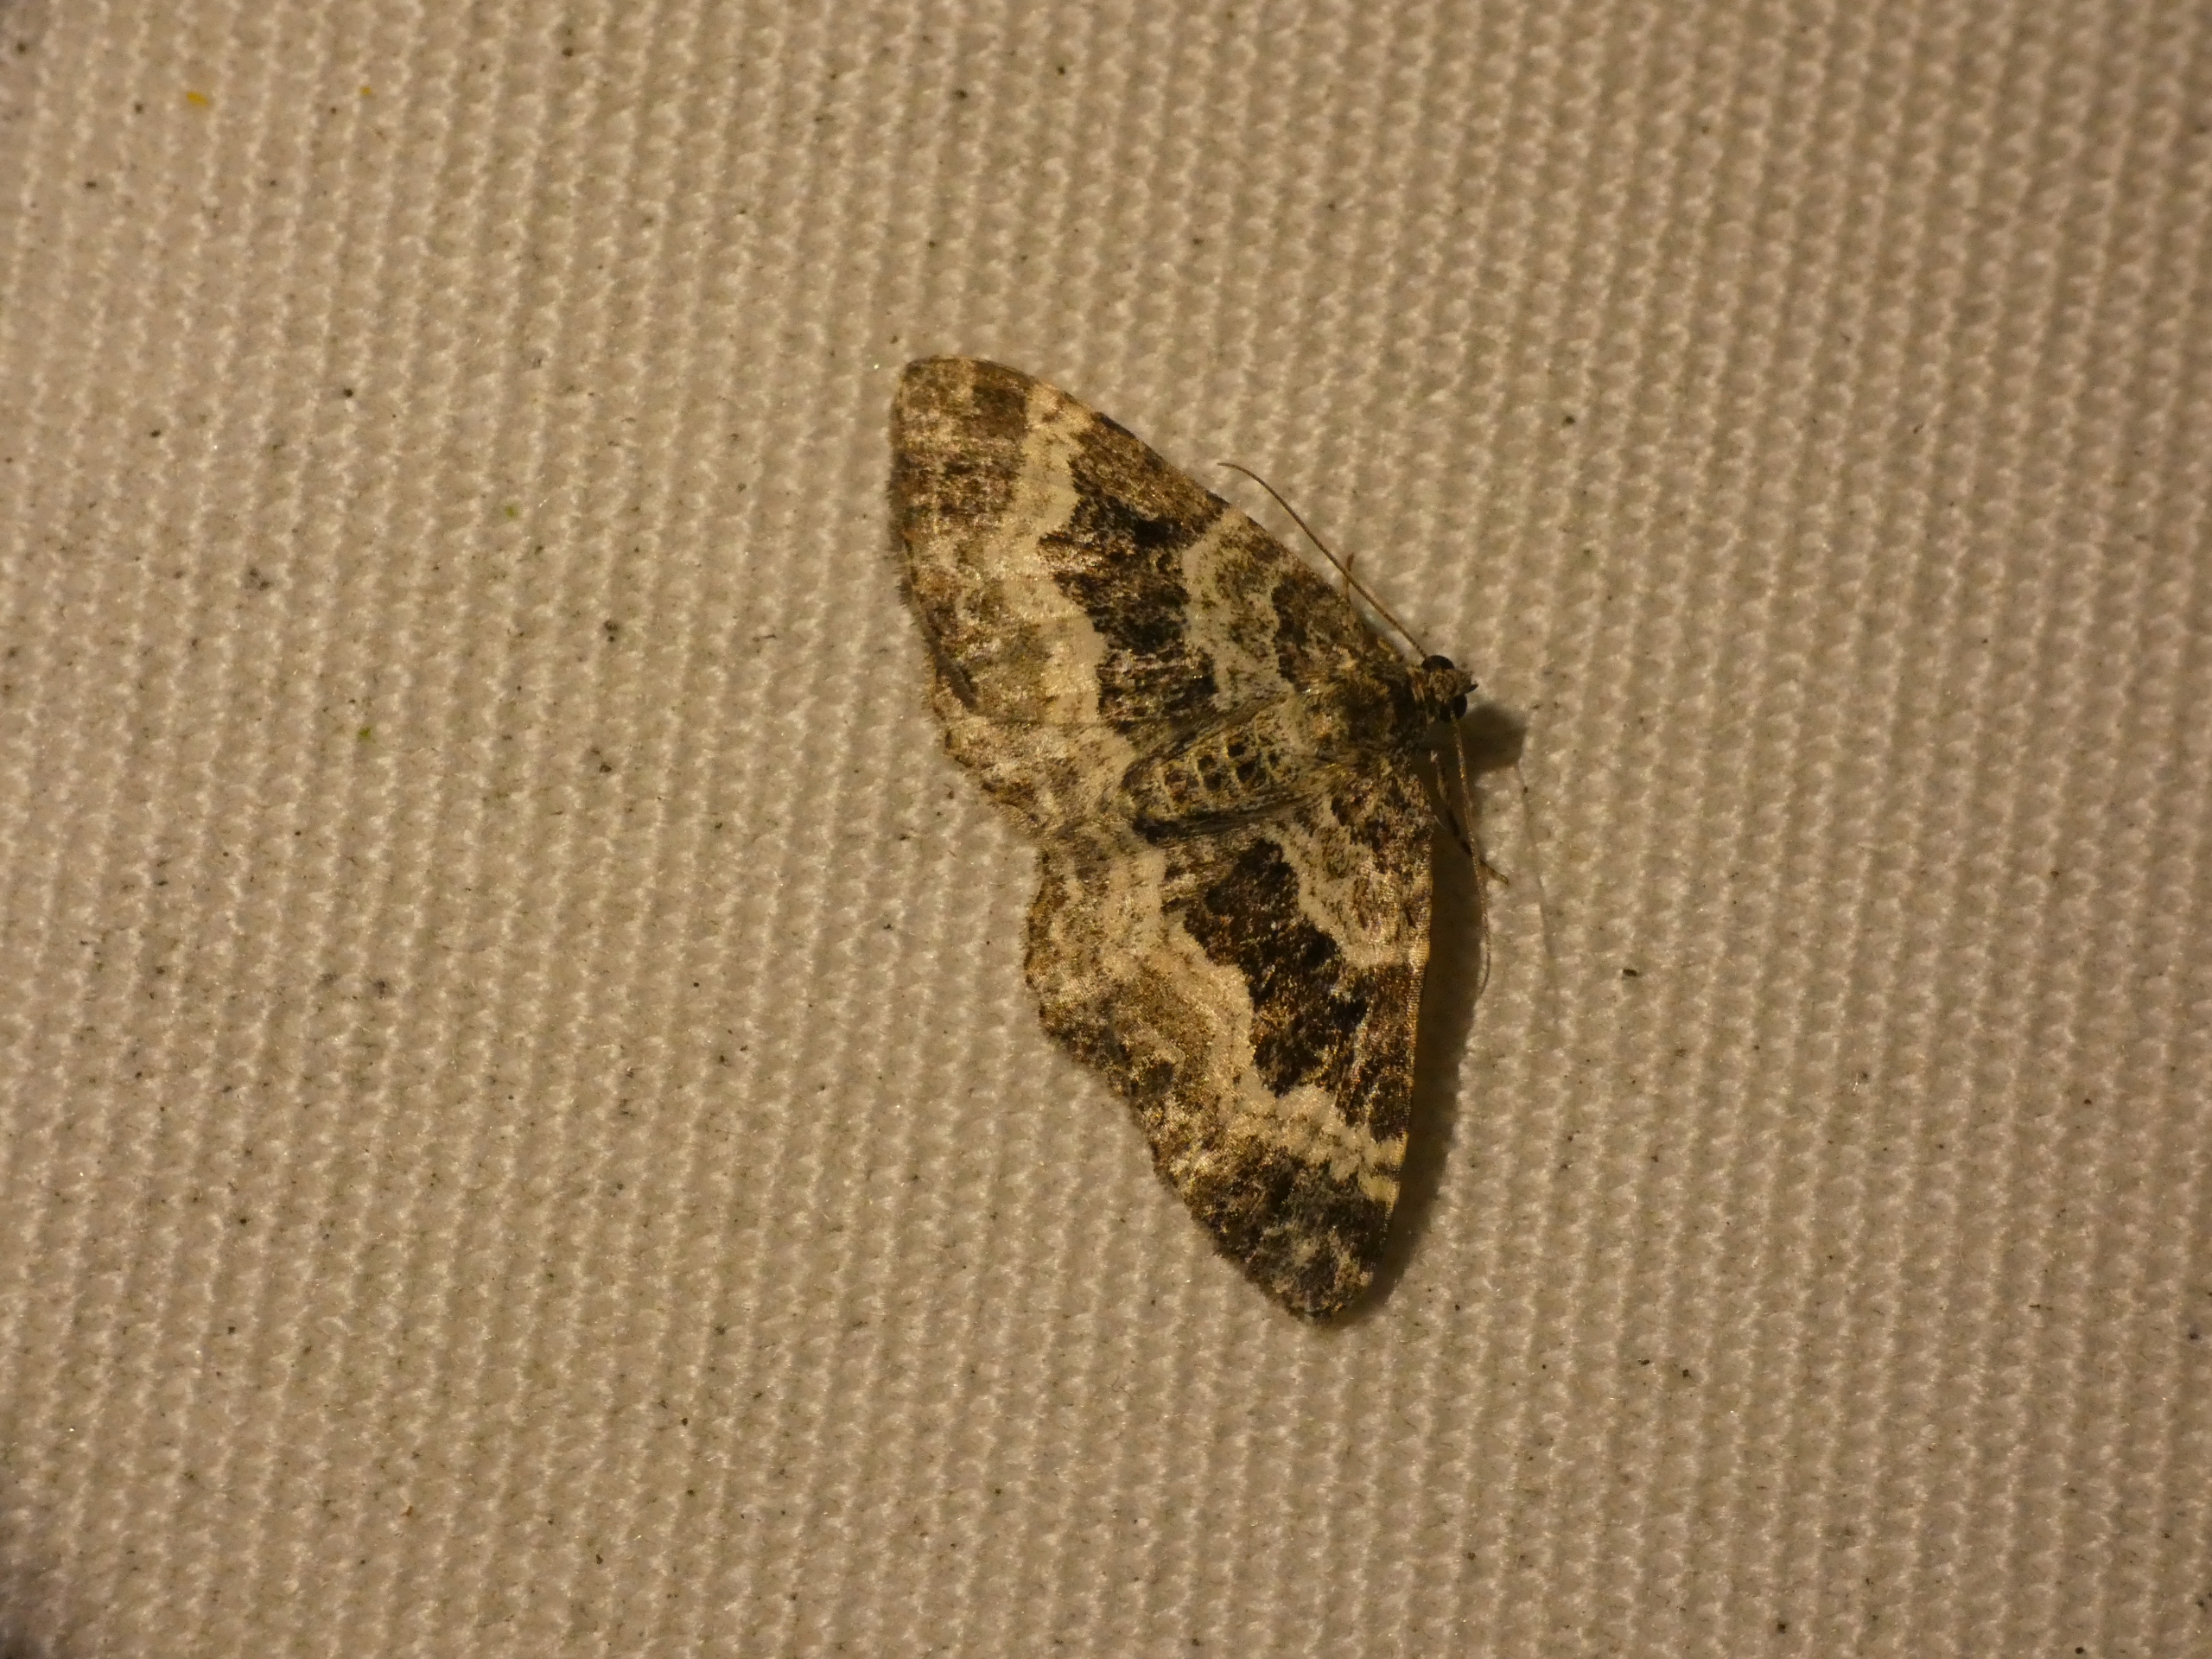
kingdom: Animalia
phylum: Arthropoda
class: Insecta
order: Lepidoptera
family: Geometridae
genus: Epirrhoe
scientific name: Epirrhoe alternata
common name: Almindelig bladmåler
